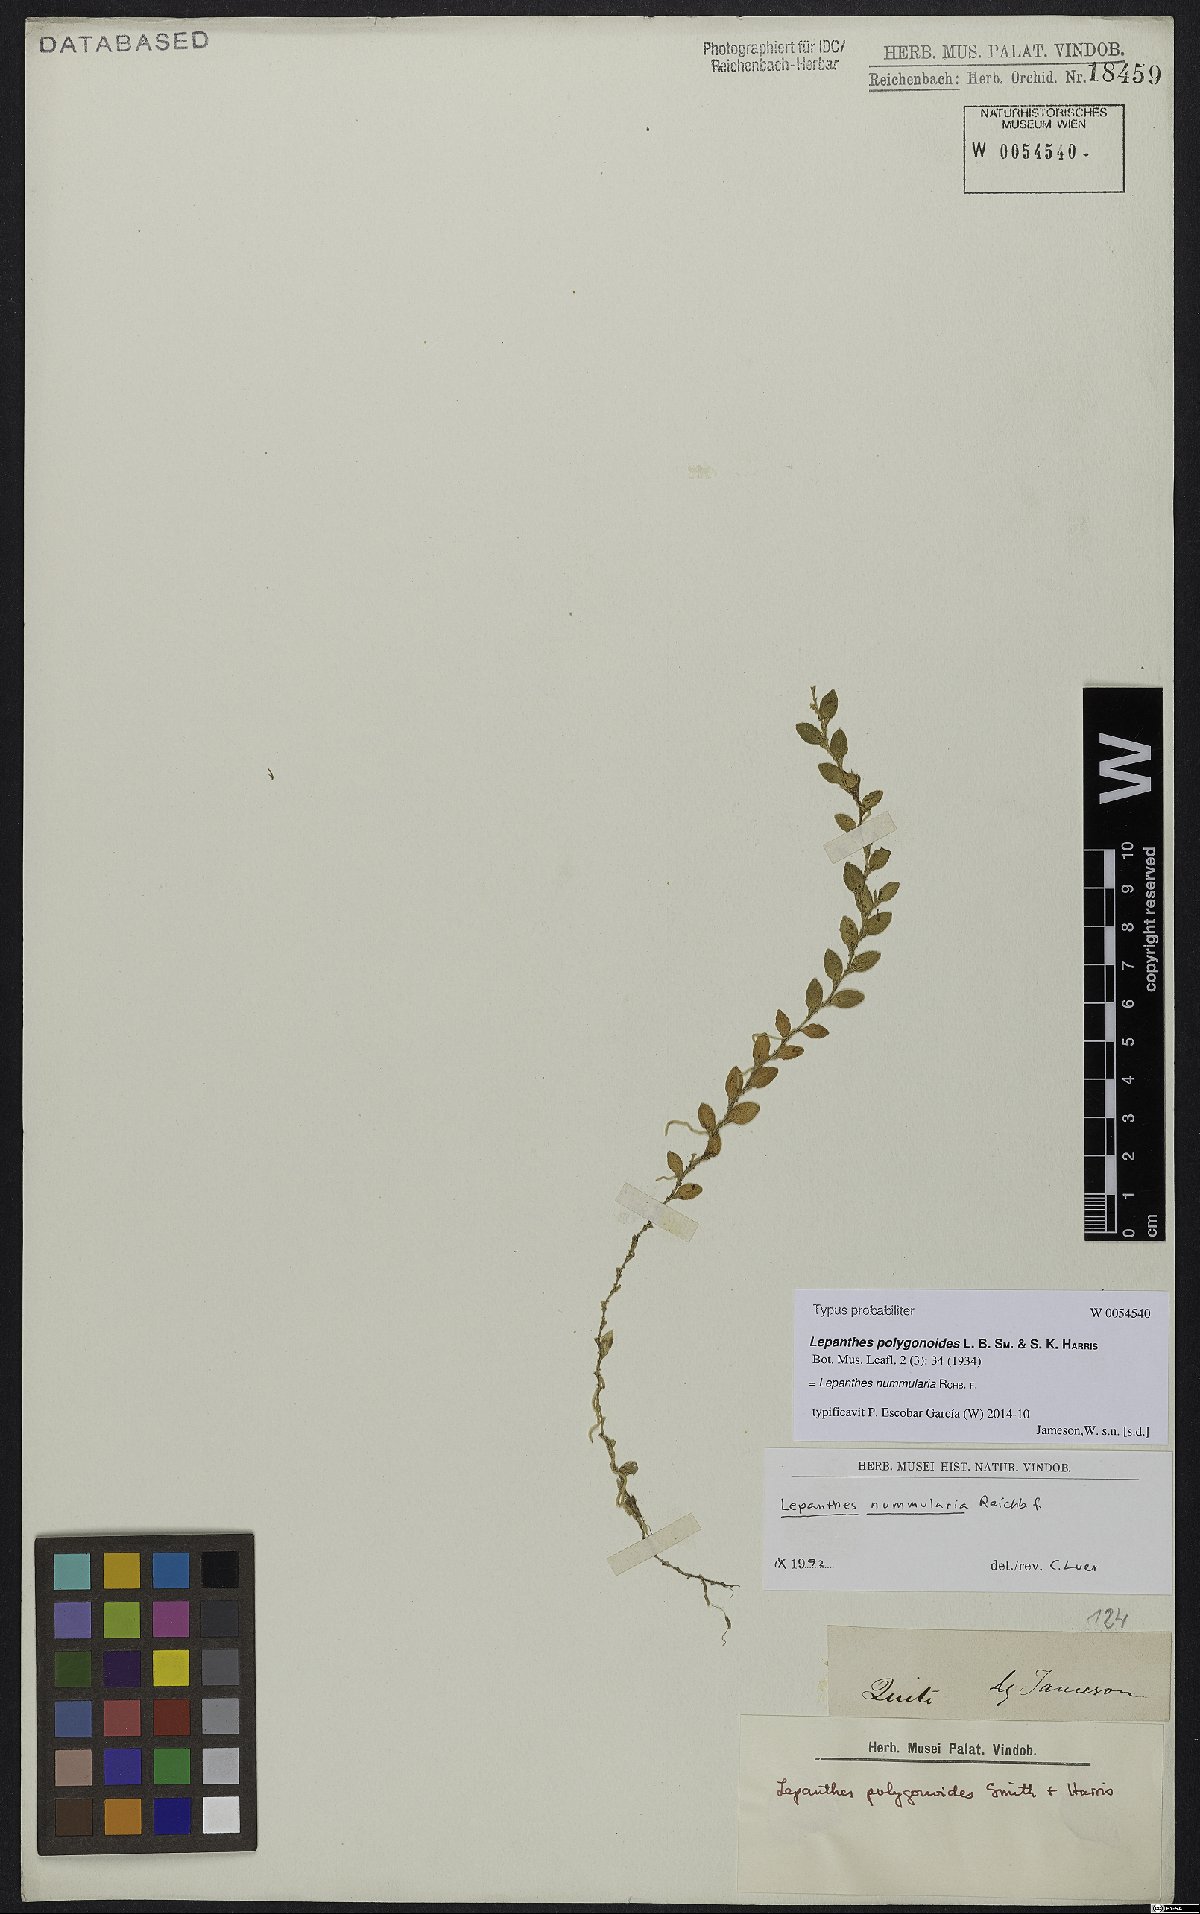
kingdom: Plantae
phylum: Tracheophyta
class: Liliopsida
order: Asparagales
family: Orchidaceae
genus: Andinia
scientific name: Andinia nummularia
